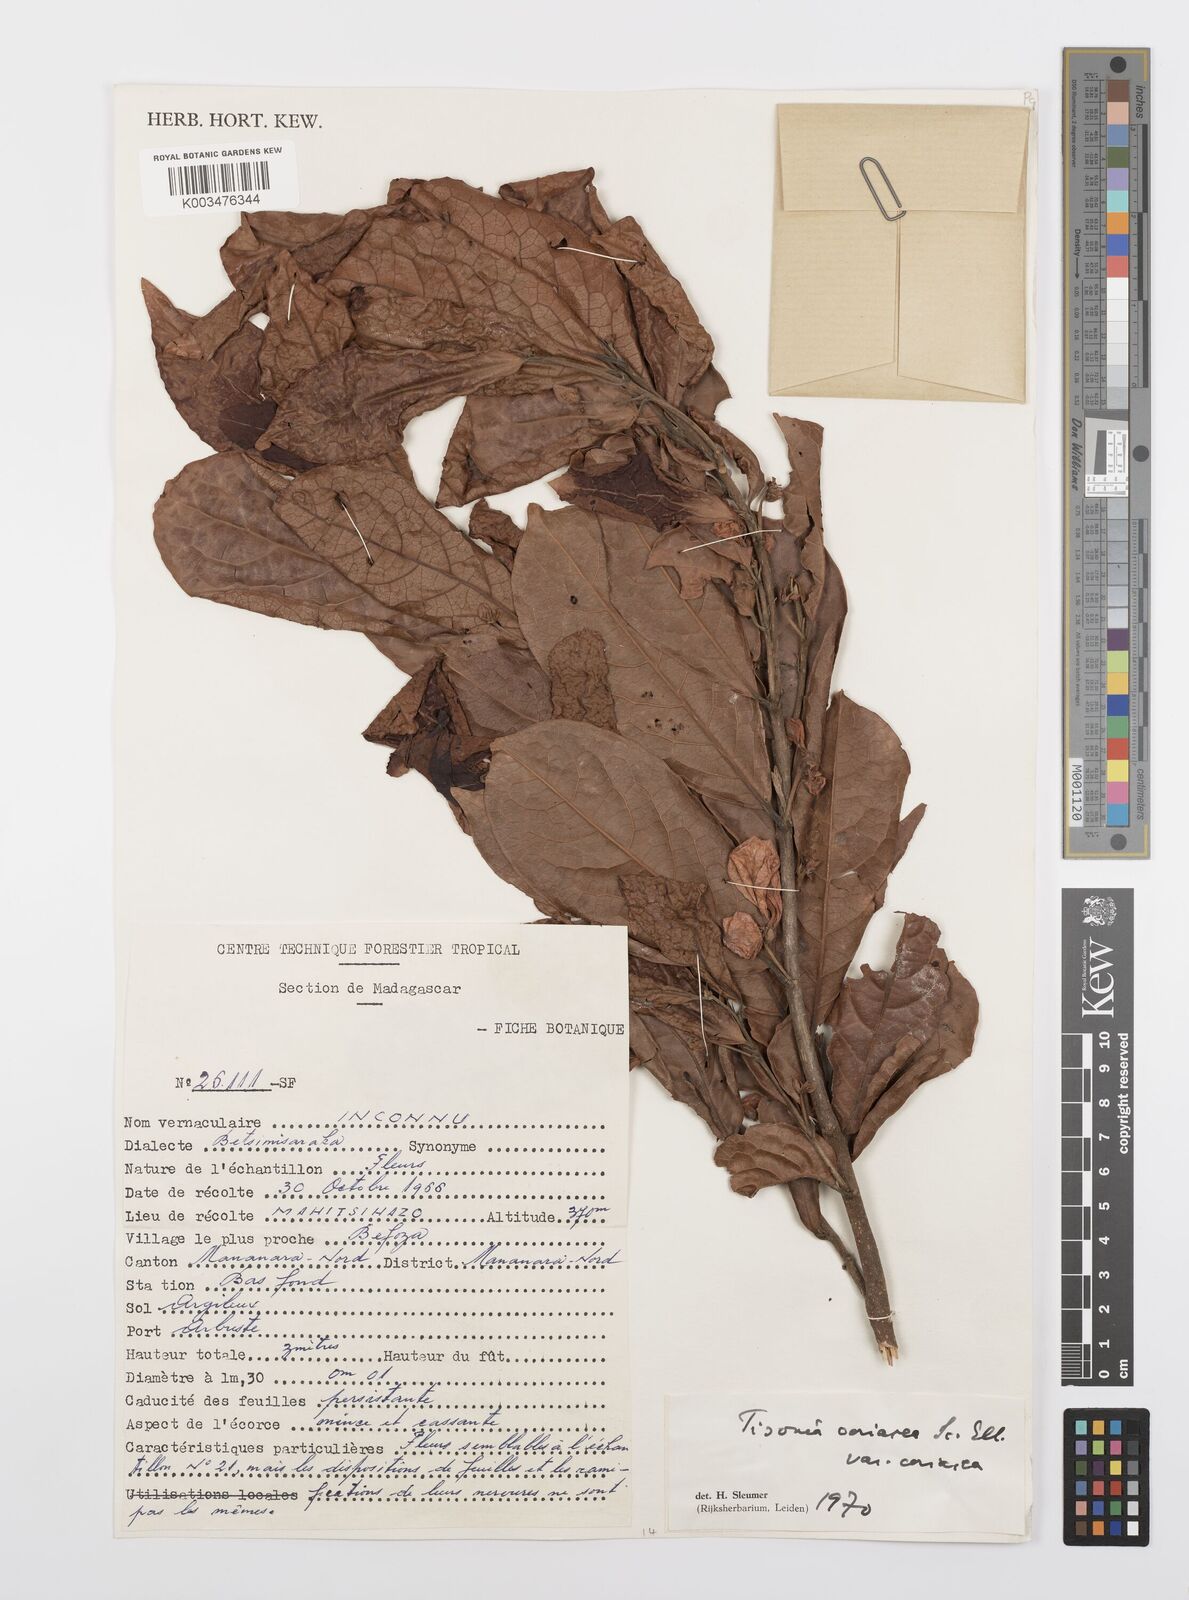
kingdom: Plantae
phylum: Tracheophyta
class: Magnoliopsida
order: Malpighiales
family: Salicaceae
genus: Tisonia
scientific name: Tisonia coriacea
